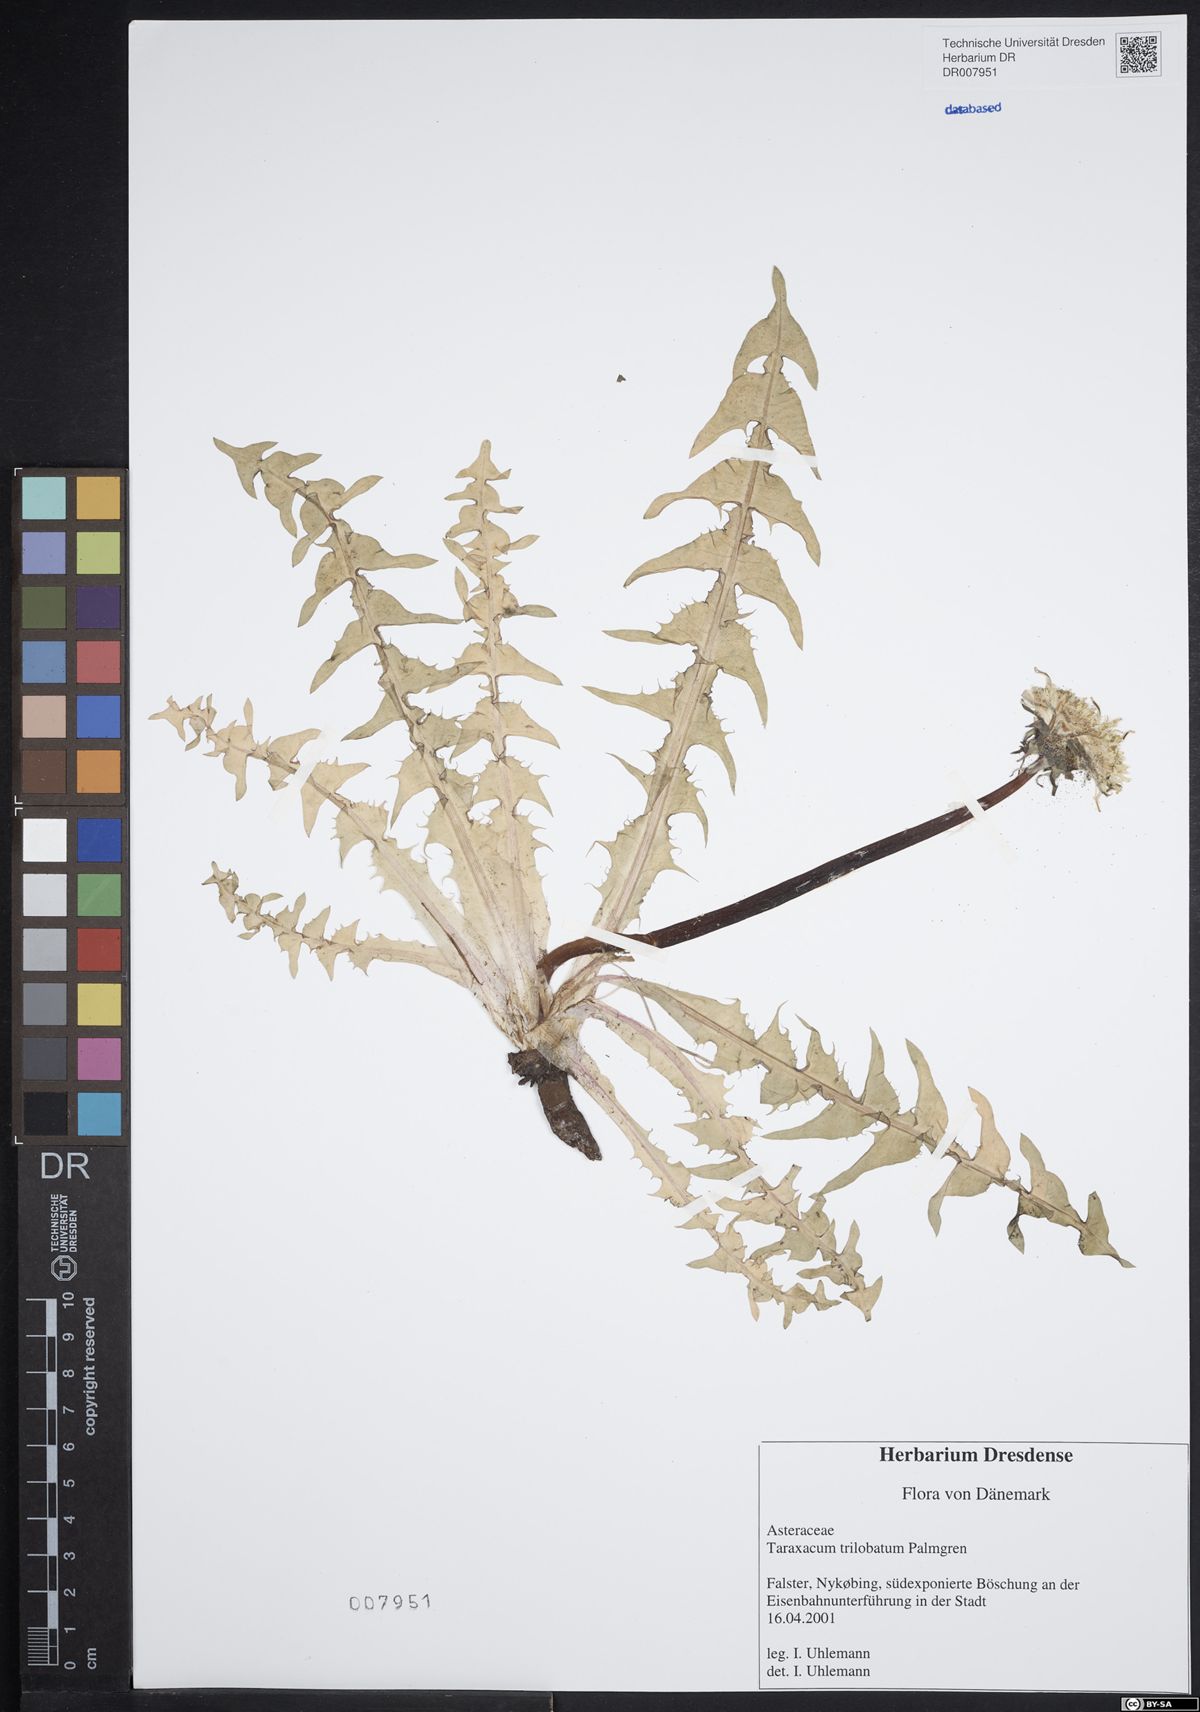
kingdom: Plantae
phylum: Tracheophyta
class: Magnoliopsida
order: Asterales
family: Asteraceae
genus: Taraxacum
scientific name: Taraxacum trilobatum
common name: Three-lobed dandelion
